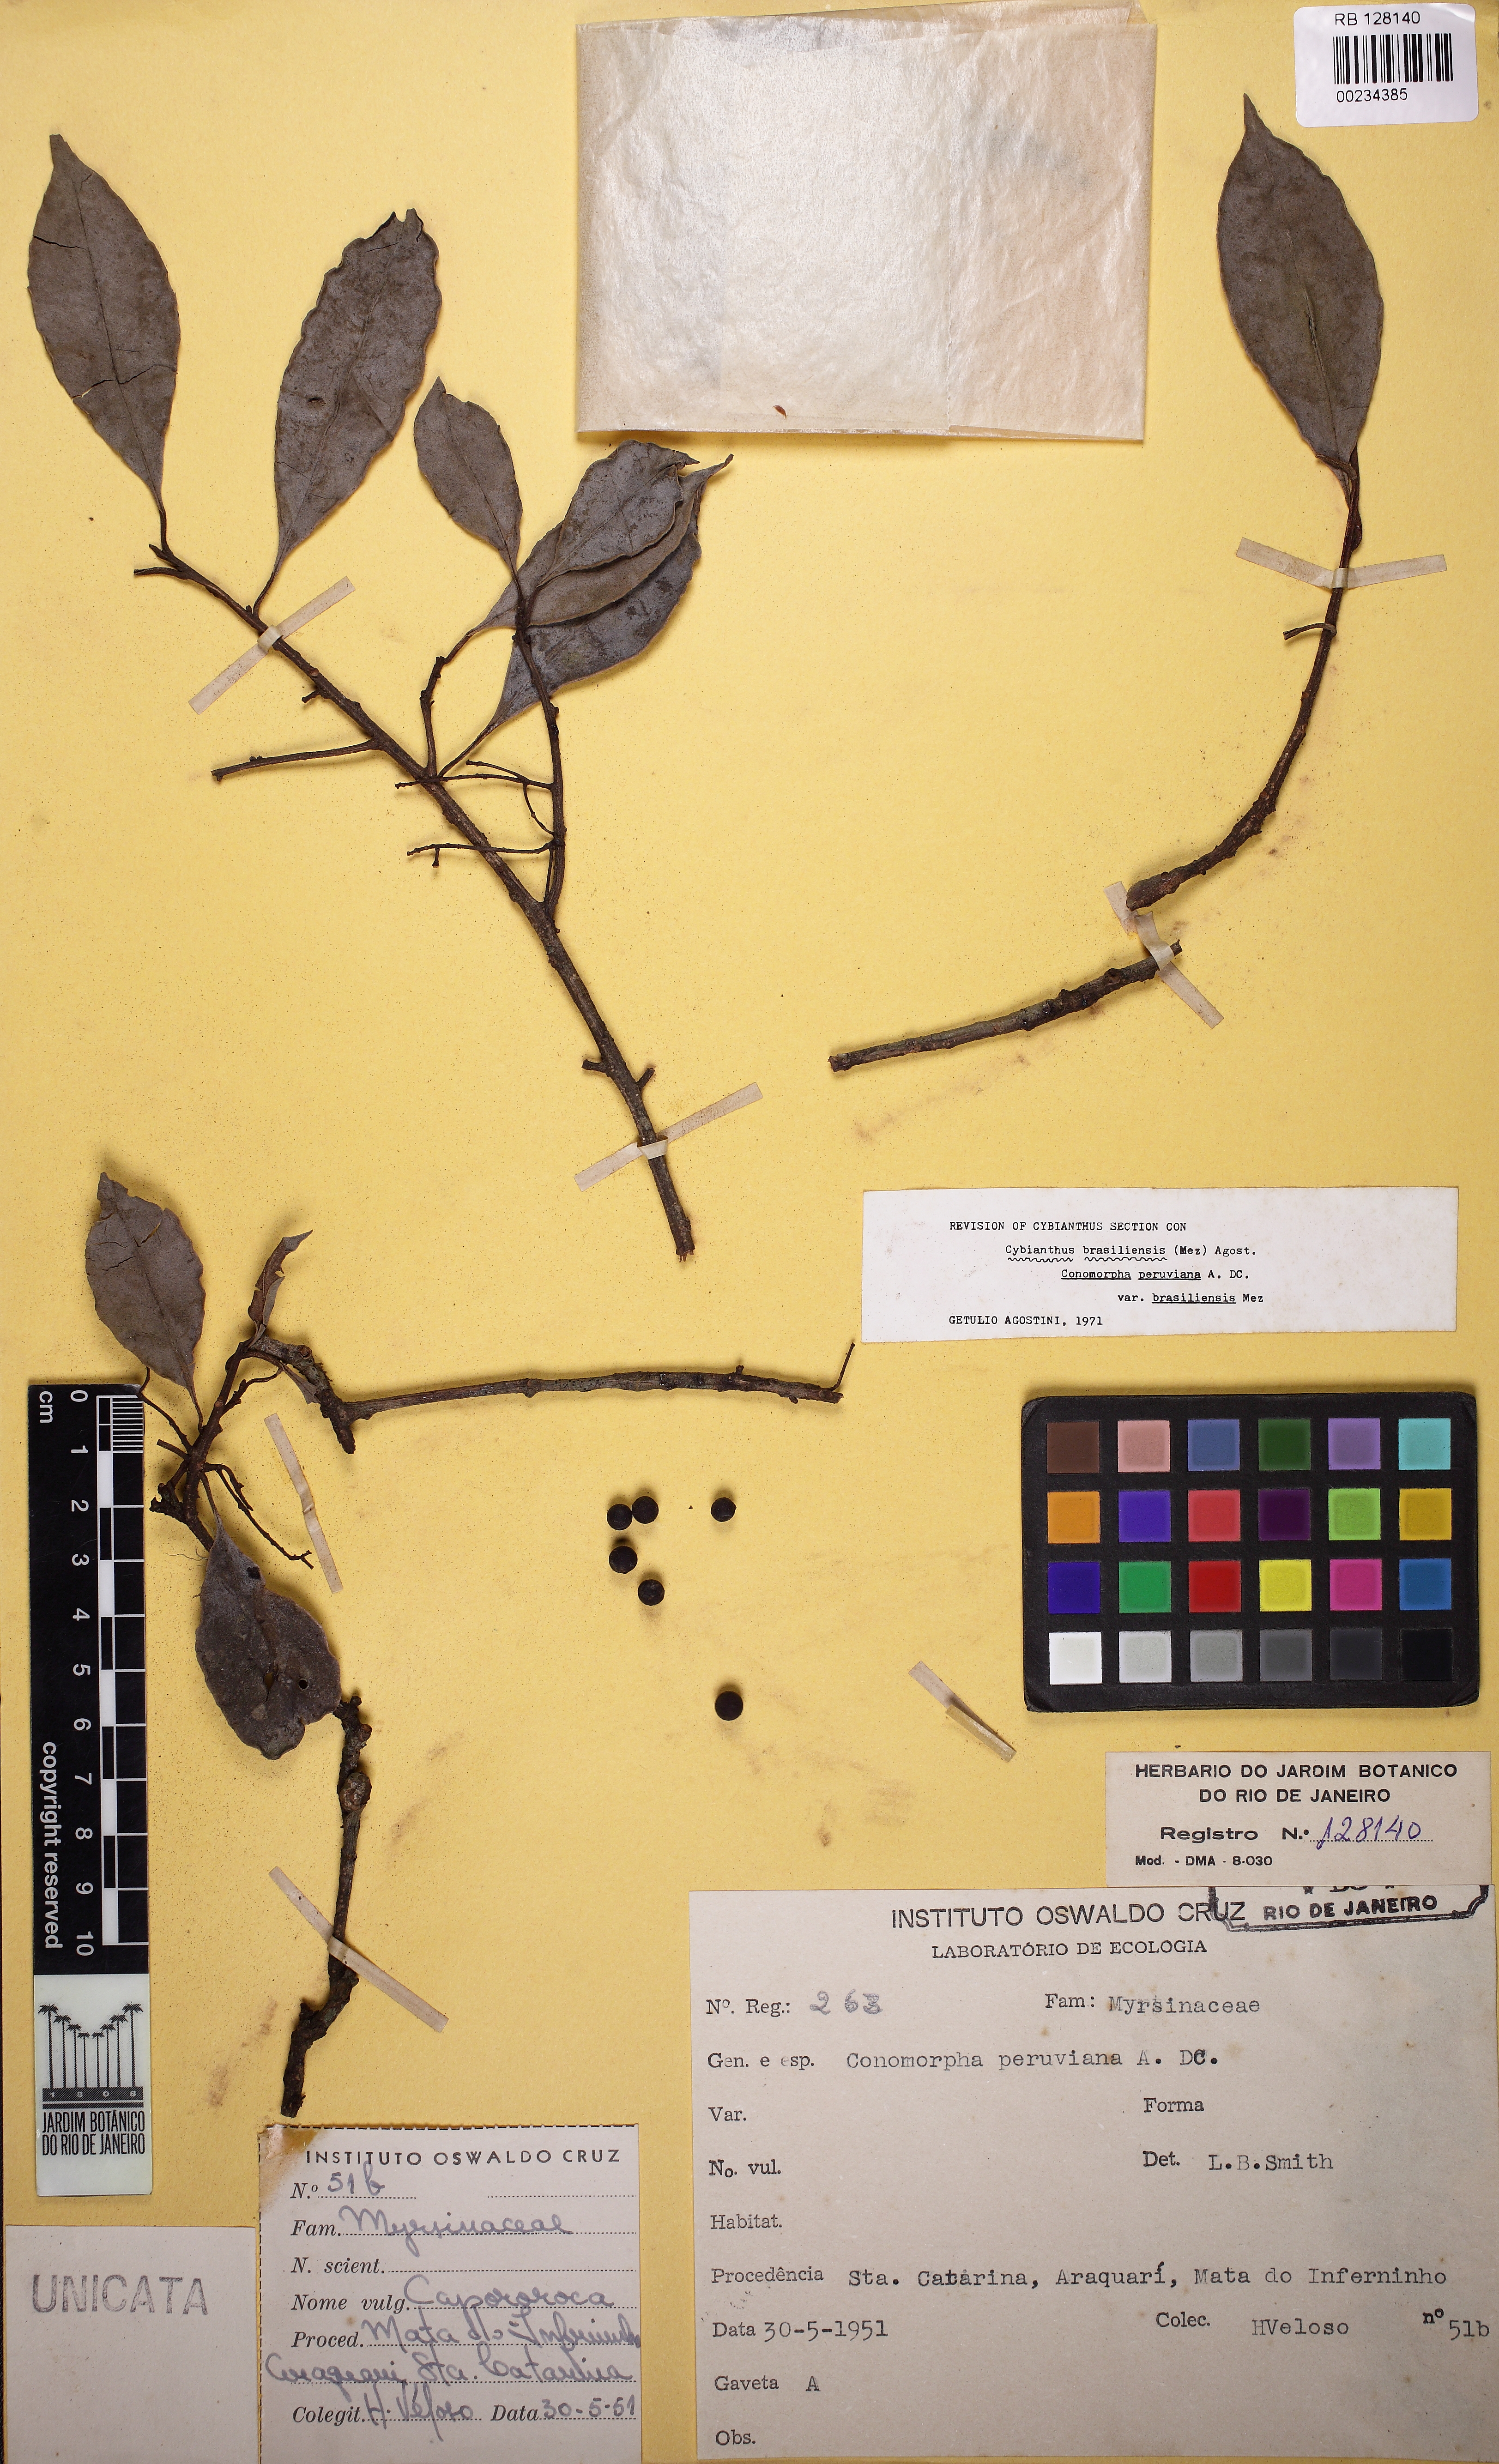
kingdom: Plantae
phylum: Tracheophyta
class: Magnoliopsida
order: Ericales
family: Primulaceae
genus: Cybianthus
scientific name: Cybianthus peruvianus
